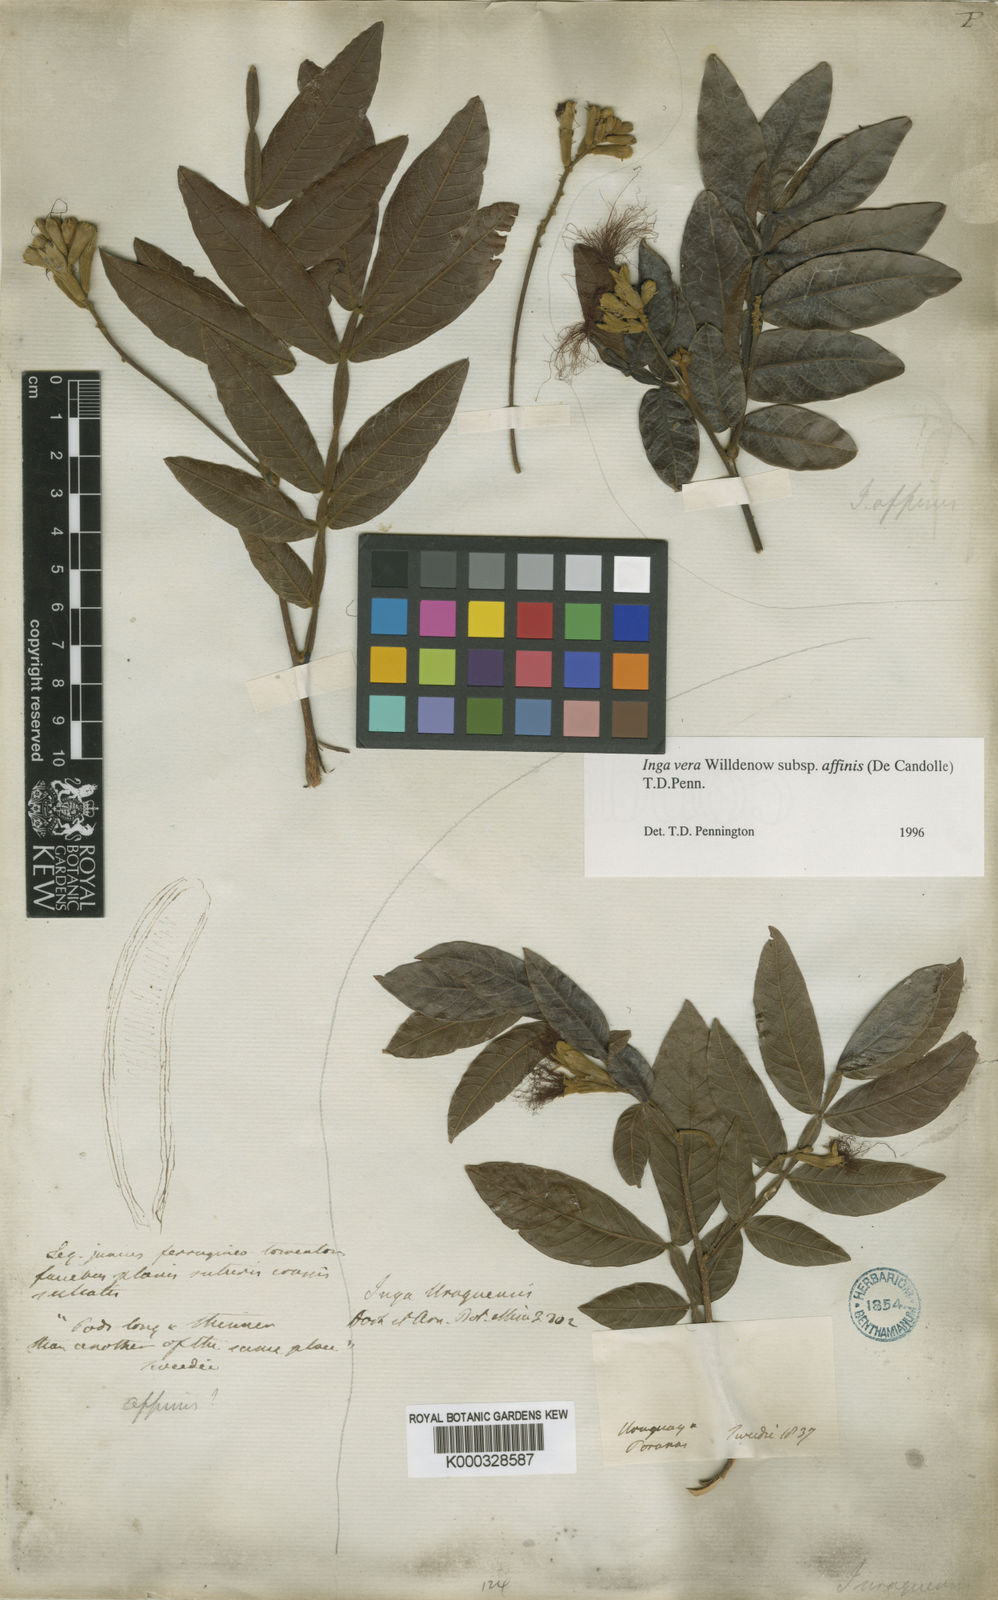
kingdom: Plantae
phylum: Tracheophyta
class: Magnoliopsida
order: Fabales
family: Fabaceae
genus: Inga
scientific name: Inga affinis
